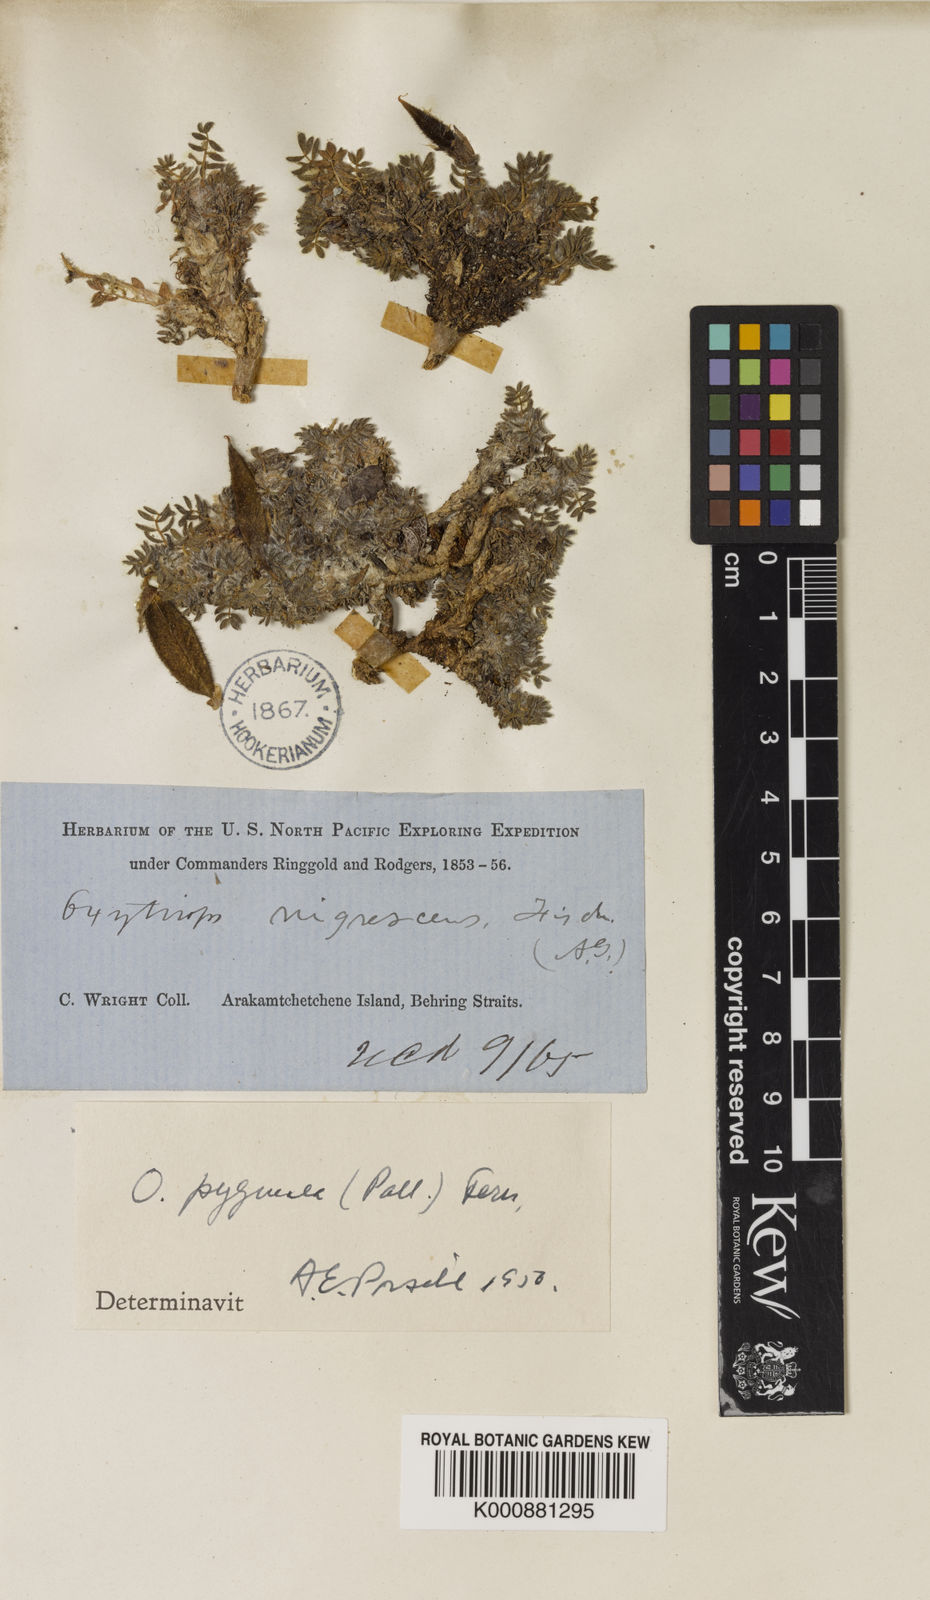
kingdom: Plantae
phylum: Tracheophyta
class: Magnoliopsida
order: Fabales
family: Fabaceae
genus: Oxytropis
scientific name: Oxytropis nigrescens
